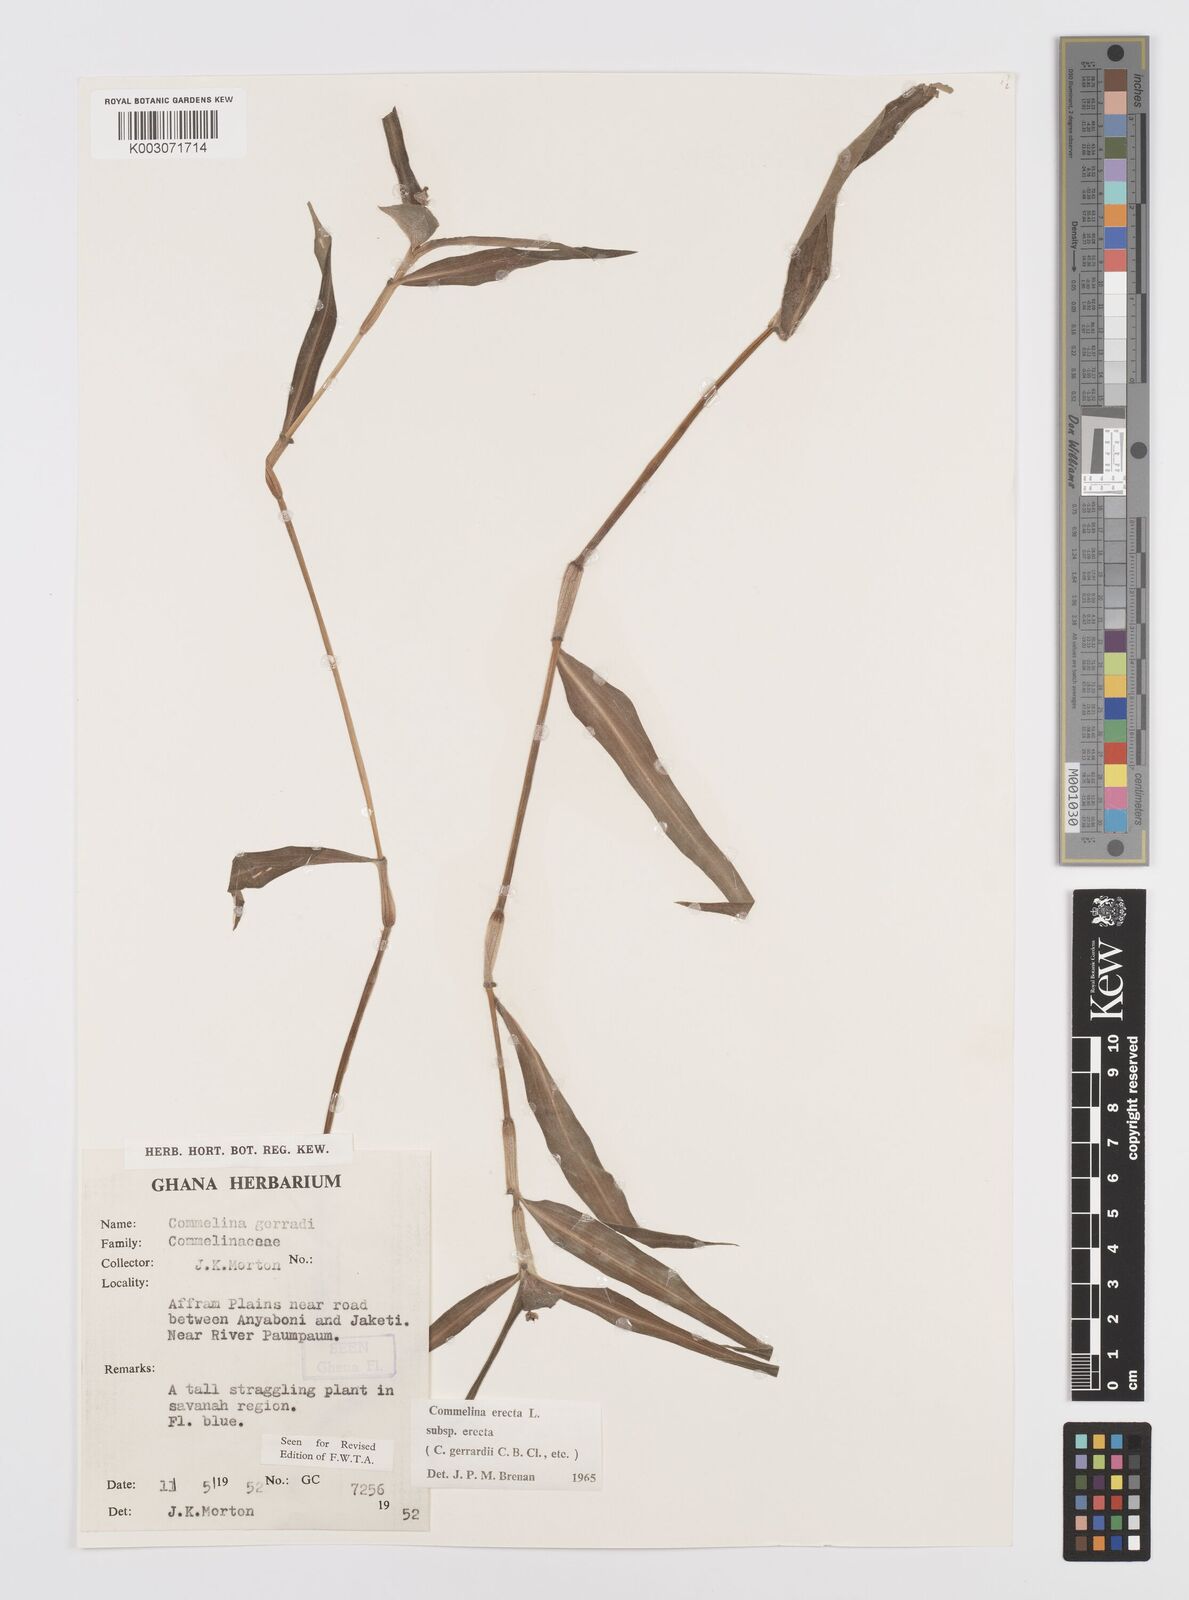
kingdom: Plantae
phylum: Tracheophyta
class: Liliopsida
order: Commelinales
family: Commelinaceae
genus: Commelina
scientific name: Commelina erecta
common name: Blousel blommetjie
